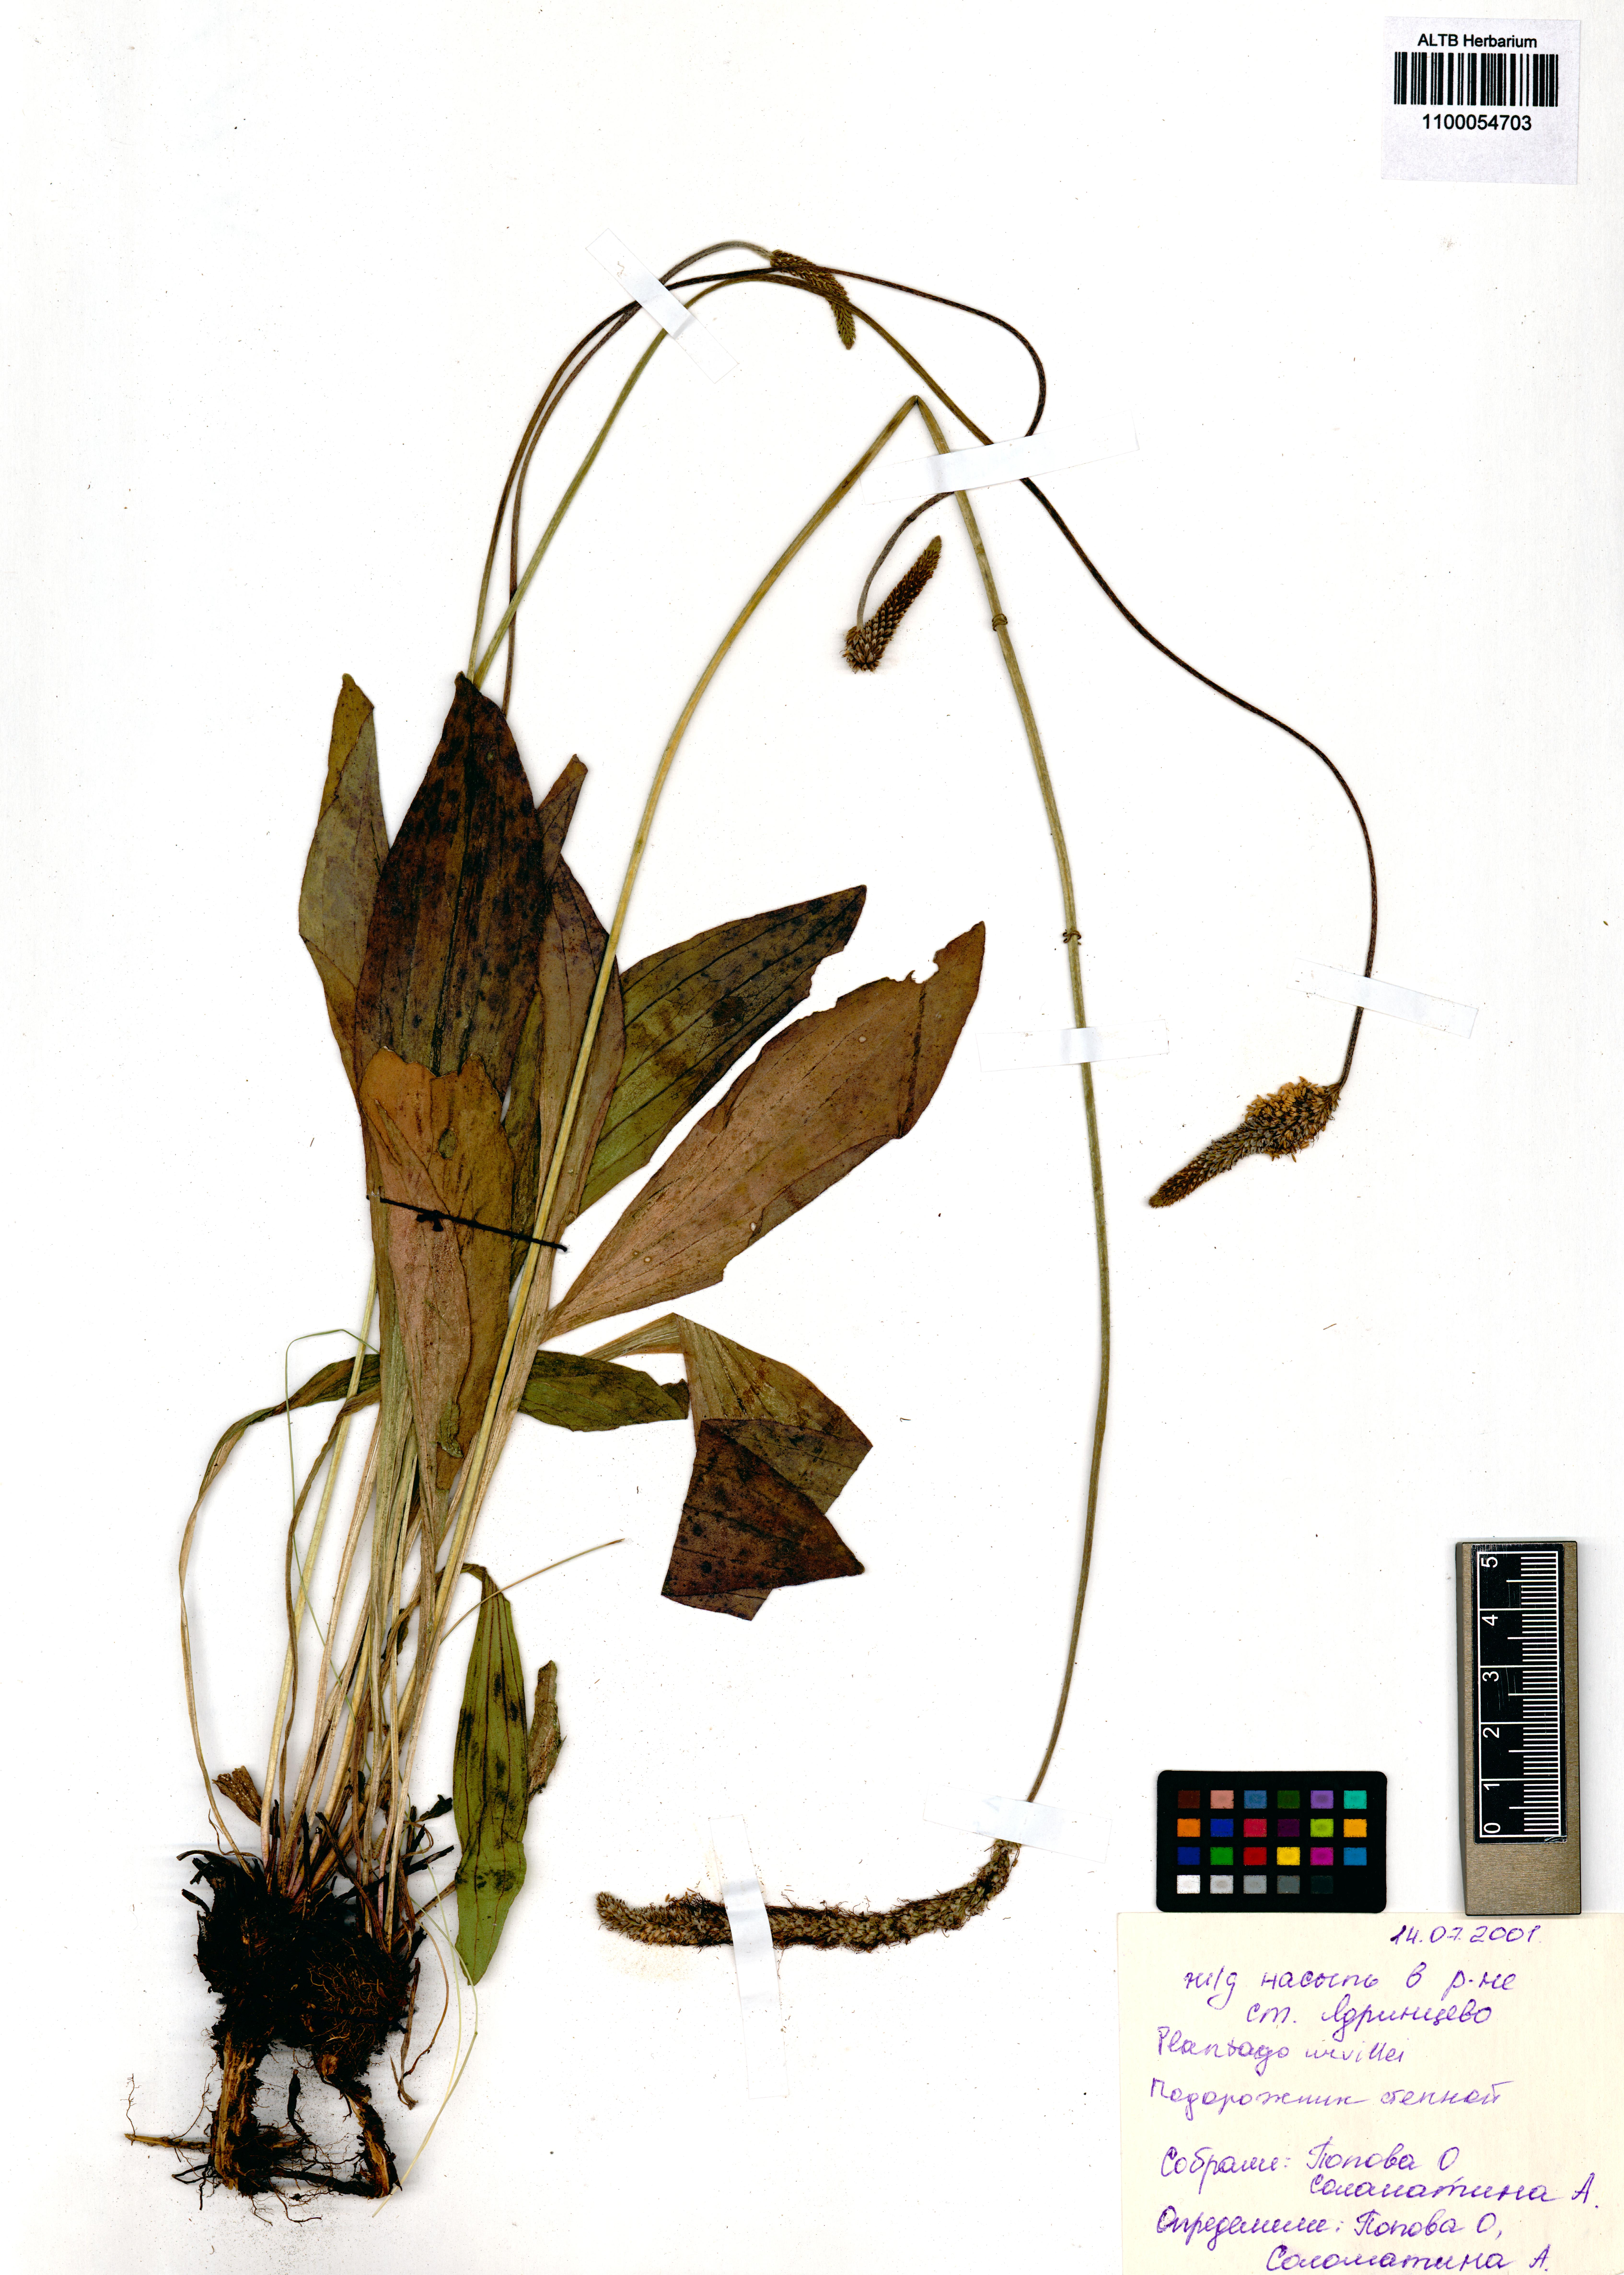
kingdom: Plantae
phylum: Tracheophyta
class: Magnoliopsida
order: Lamiales
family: Plantaginaceae
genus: Plantago
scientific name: Plantago urvillei
